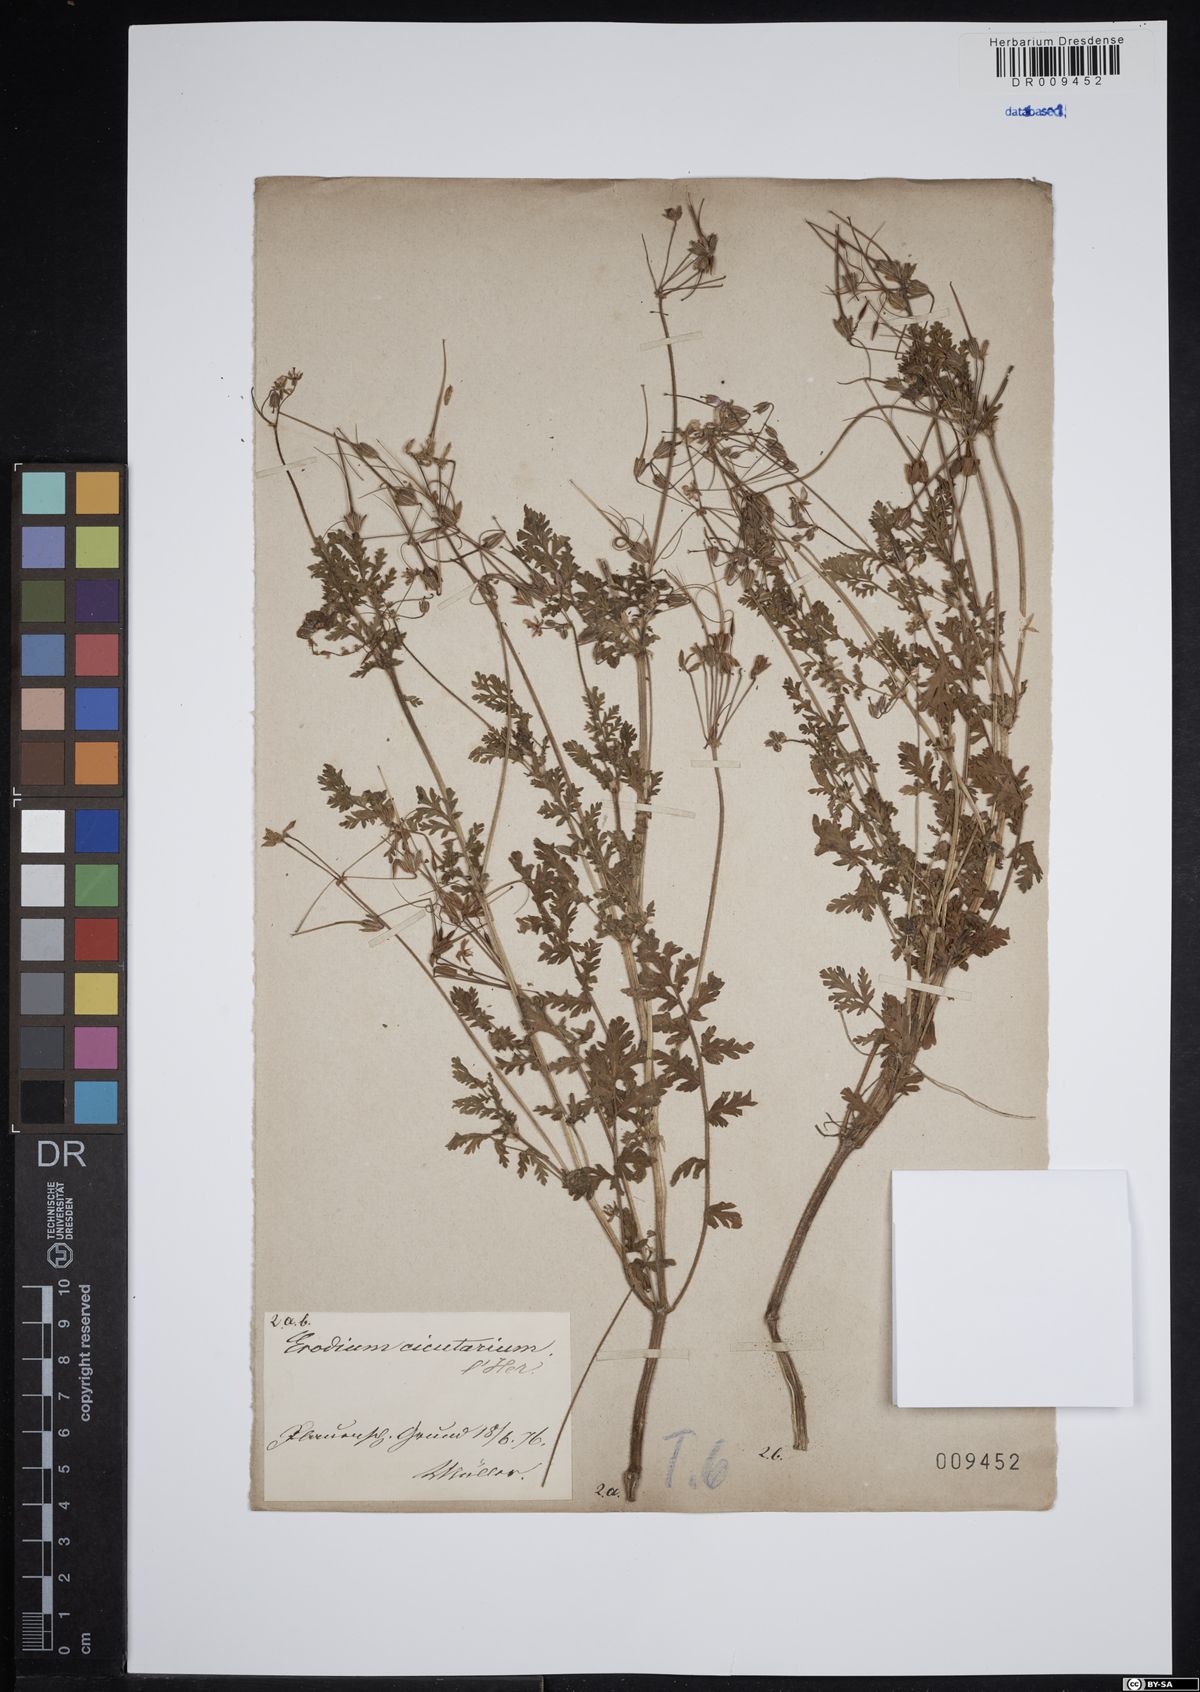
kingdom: Plantae
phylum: Tracheophyta
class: Magnoliopsida
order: Geraniales
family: Geraniaceae
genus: Erodium
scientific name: Erodium cicutarium
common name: Common stork's-bill
